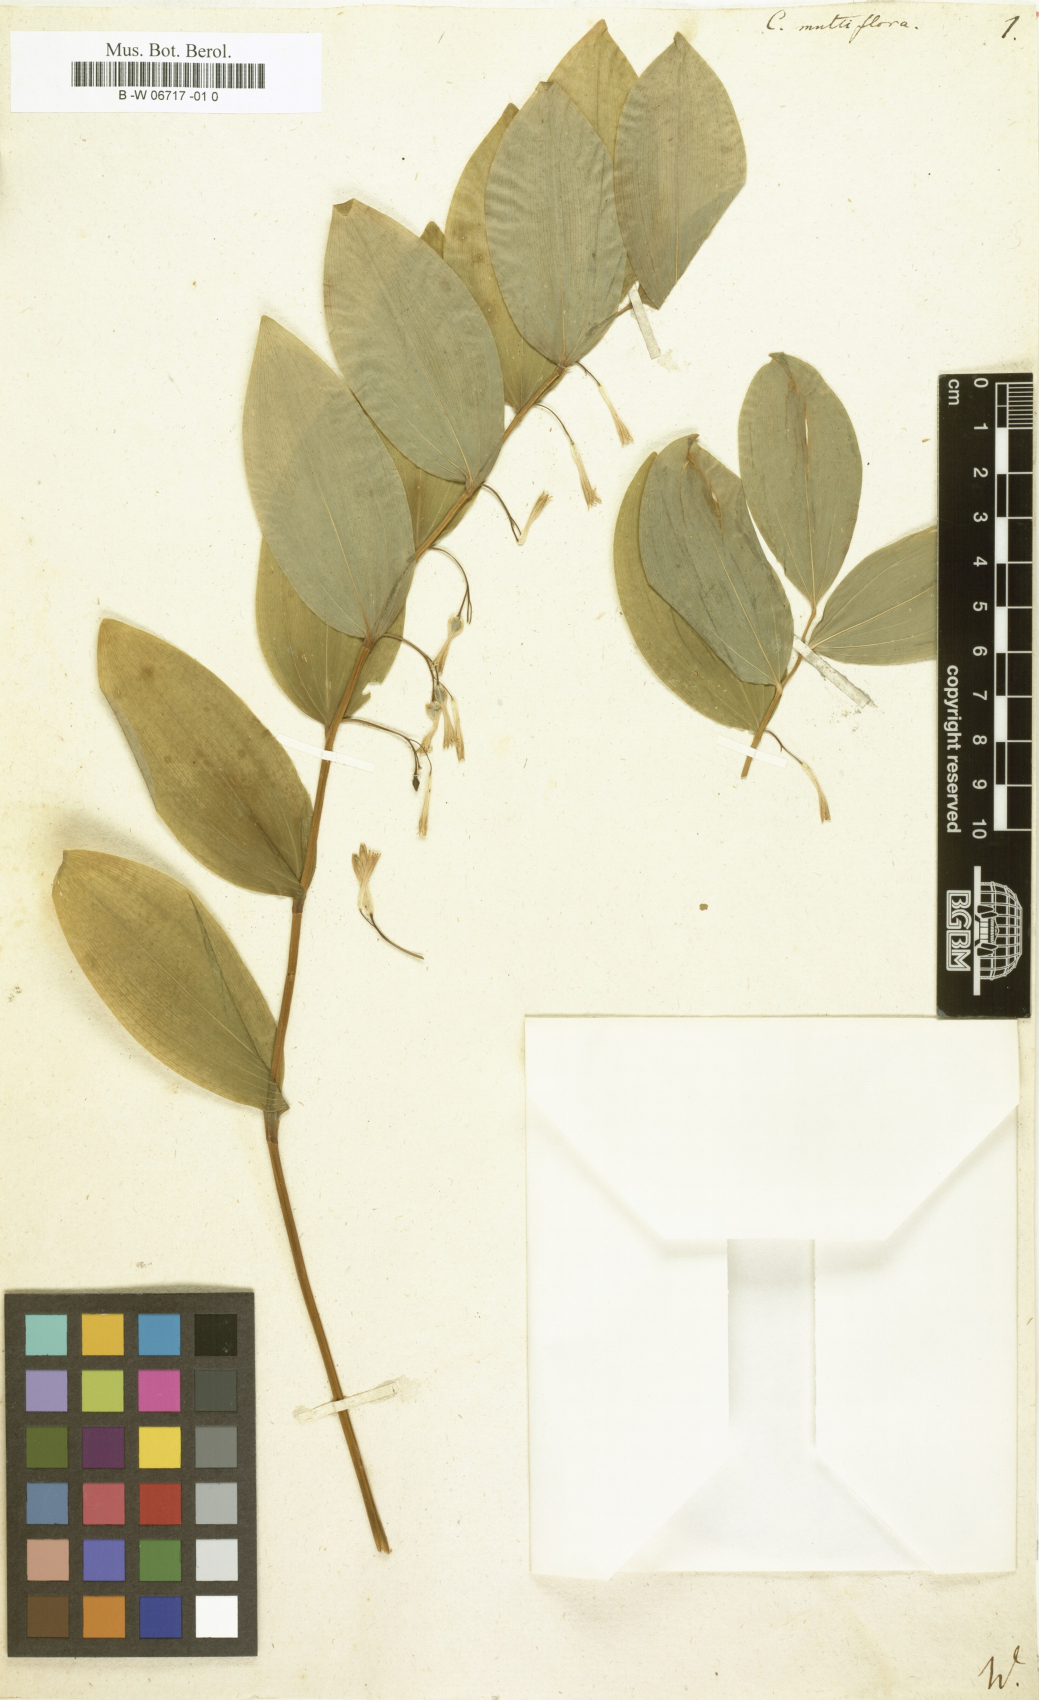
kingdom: Plantae
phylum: Tracheophyta
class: Liliopsida
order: Asparagales
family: Asparagaceae
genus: Polygonatum
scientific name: Polygonatum multiflorum
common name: Solomon's-seal
